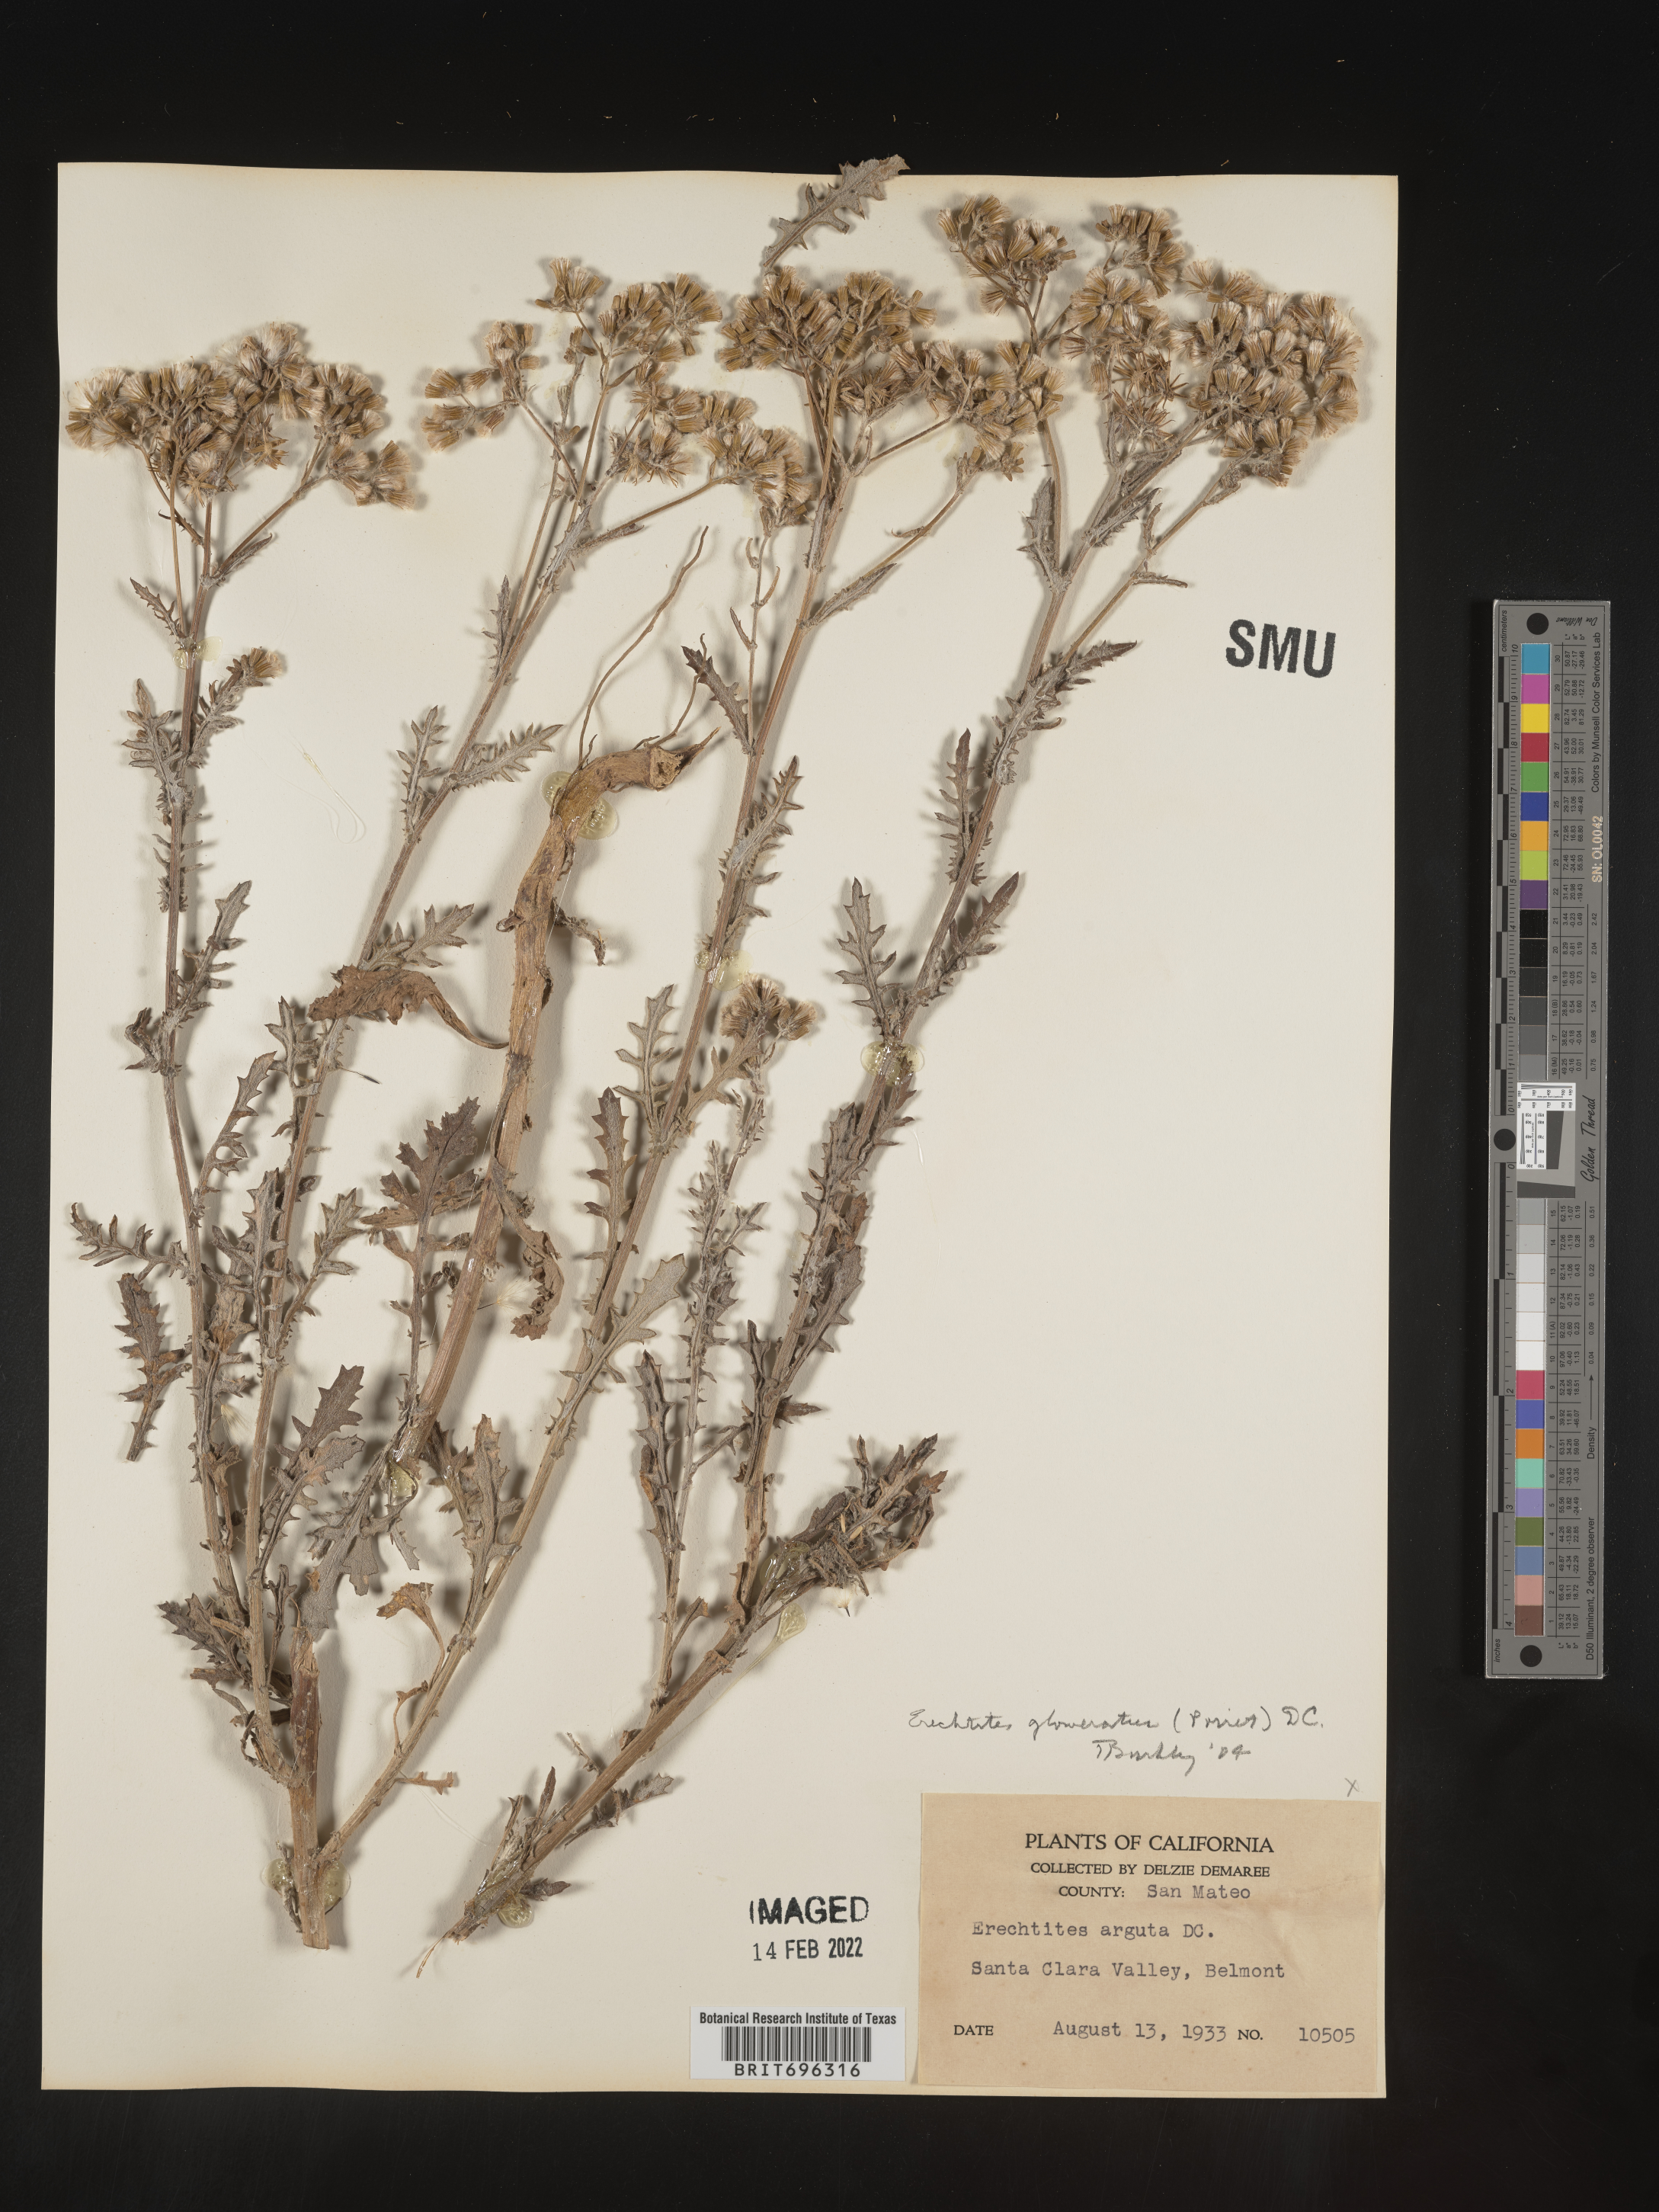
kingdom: Plantae
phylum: Tracheophyta
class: Magnoliopsida
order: Asterales
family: Asteraceae
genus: Senecio
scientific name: Senecio glomeratus
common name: Cutleaf burnweed
